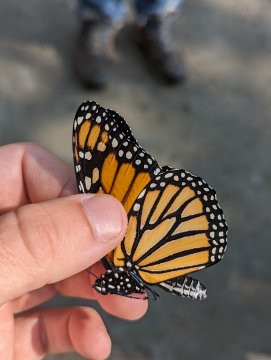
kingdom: Animalia
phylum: Arthropoda
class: Insecta
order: Lepidoptera
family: Nymphalidae
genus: Danaus
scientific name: Danaus plexippus
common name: Monarch
